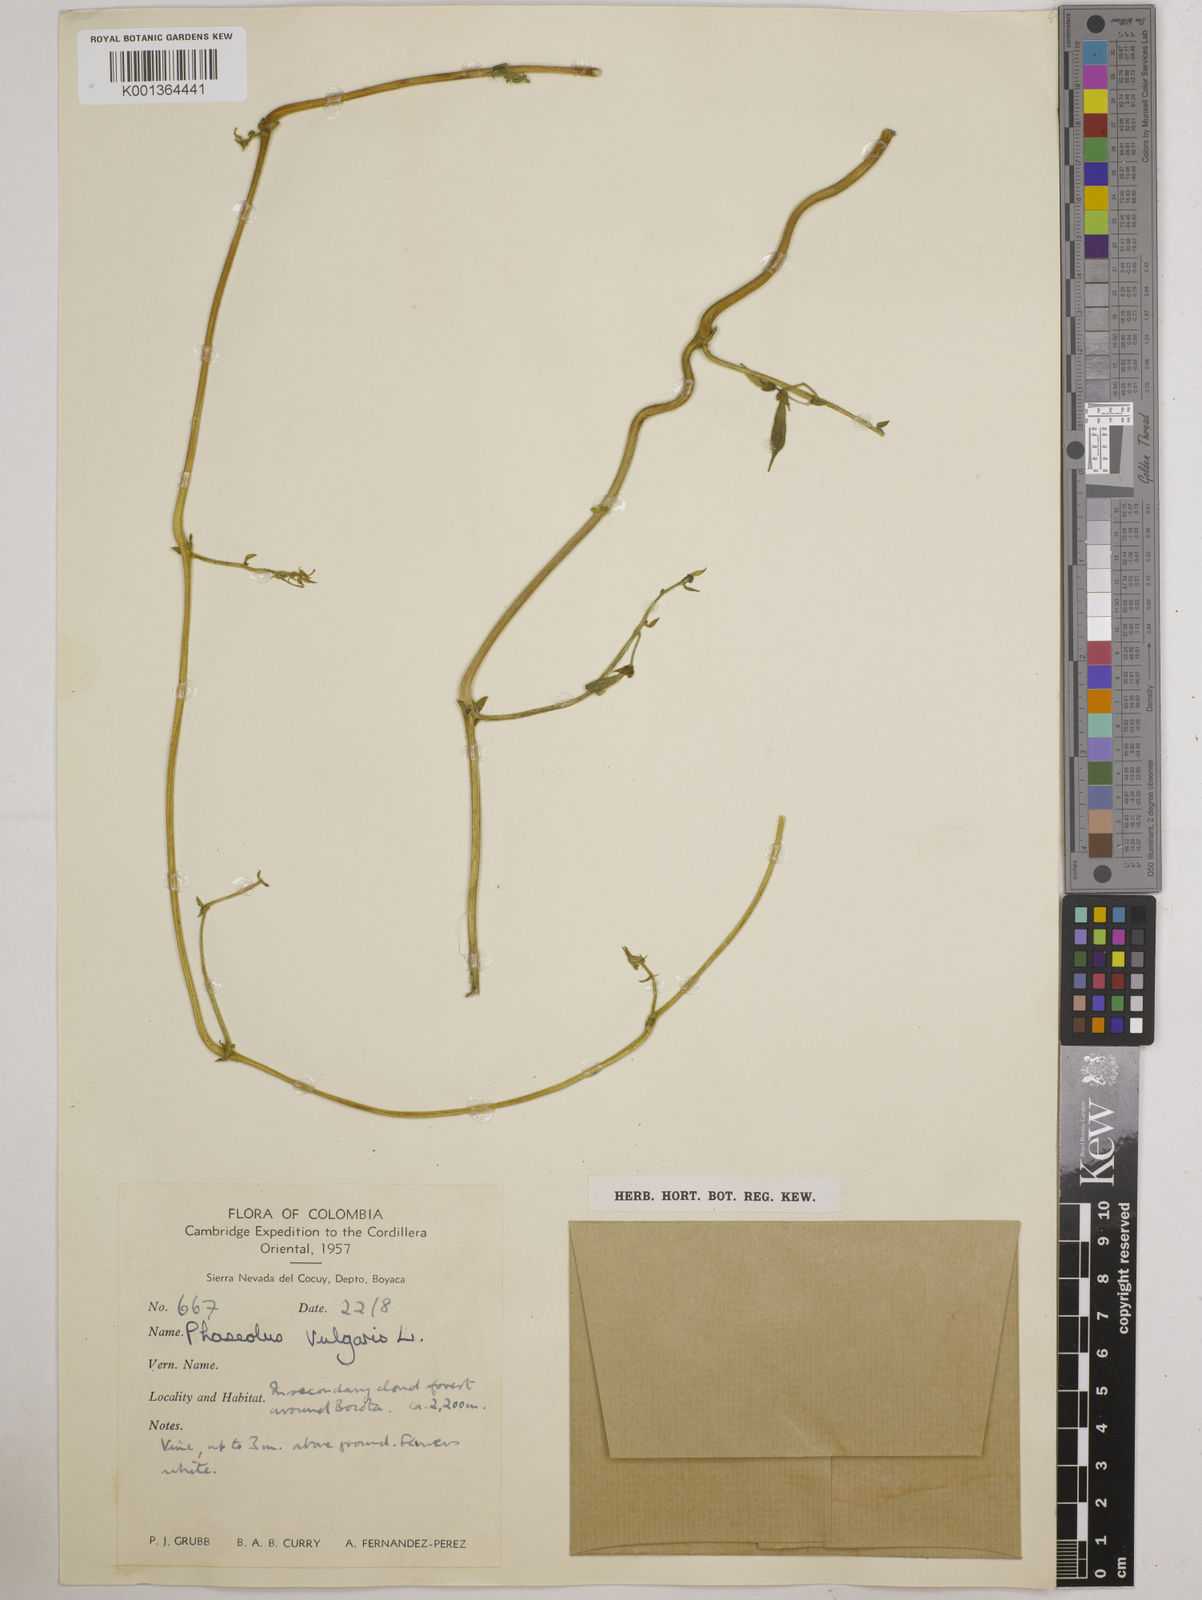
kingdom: Plantae
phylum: Tracheophyta
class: Magnoliopsida
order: Fabales
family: Fabaceae
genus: Phaseolus
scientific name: Phaseolus vulgaris
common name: Bean
